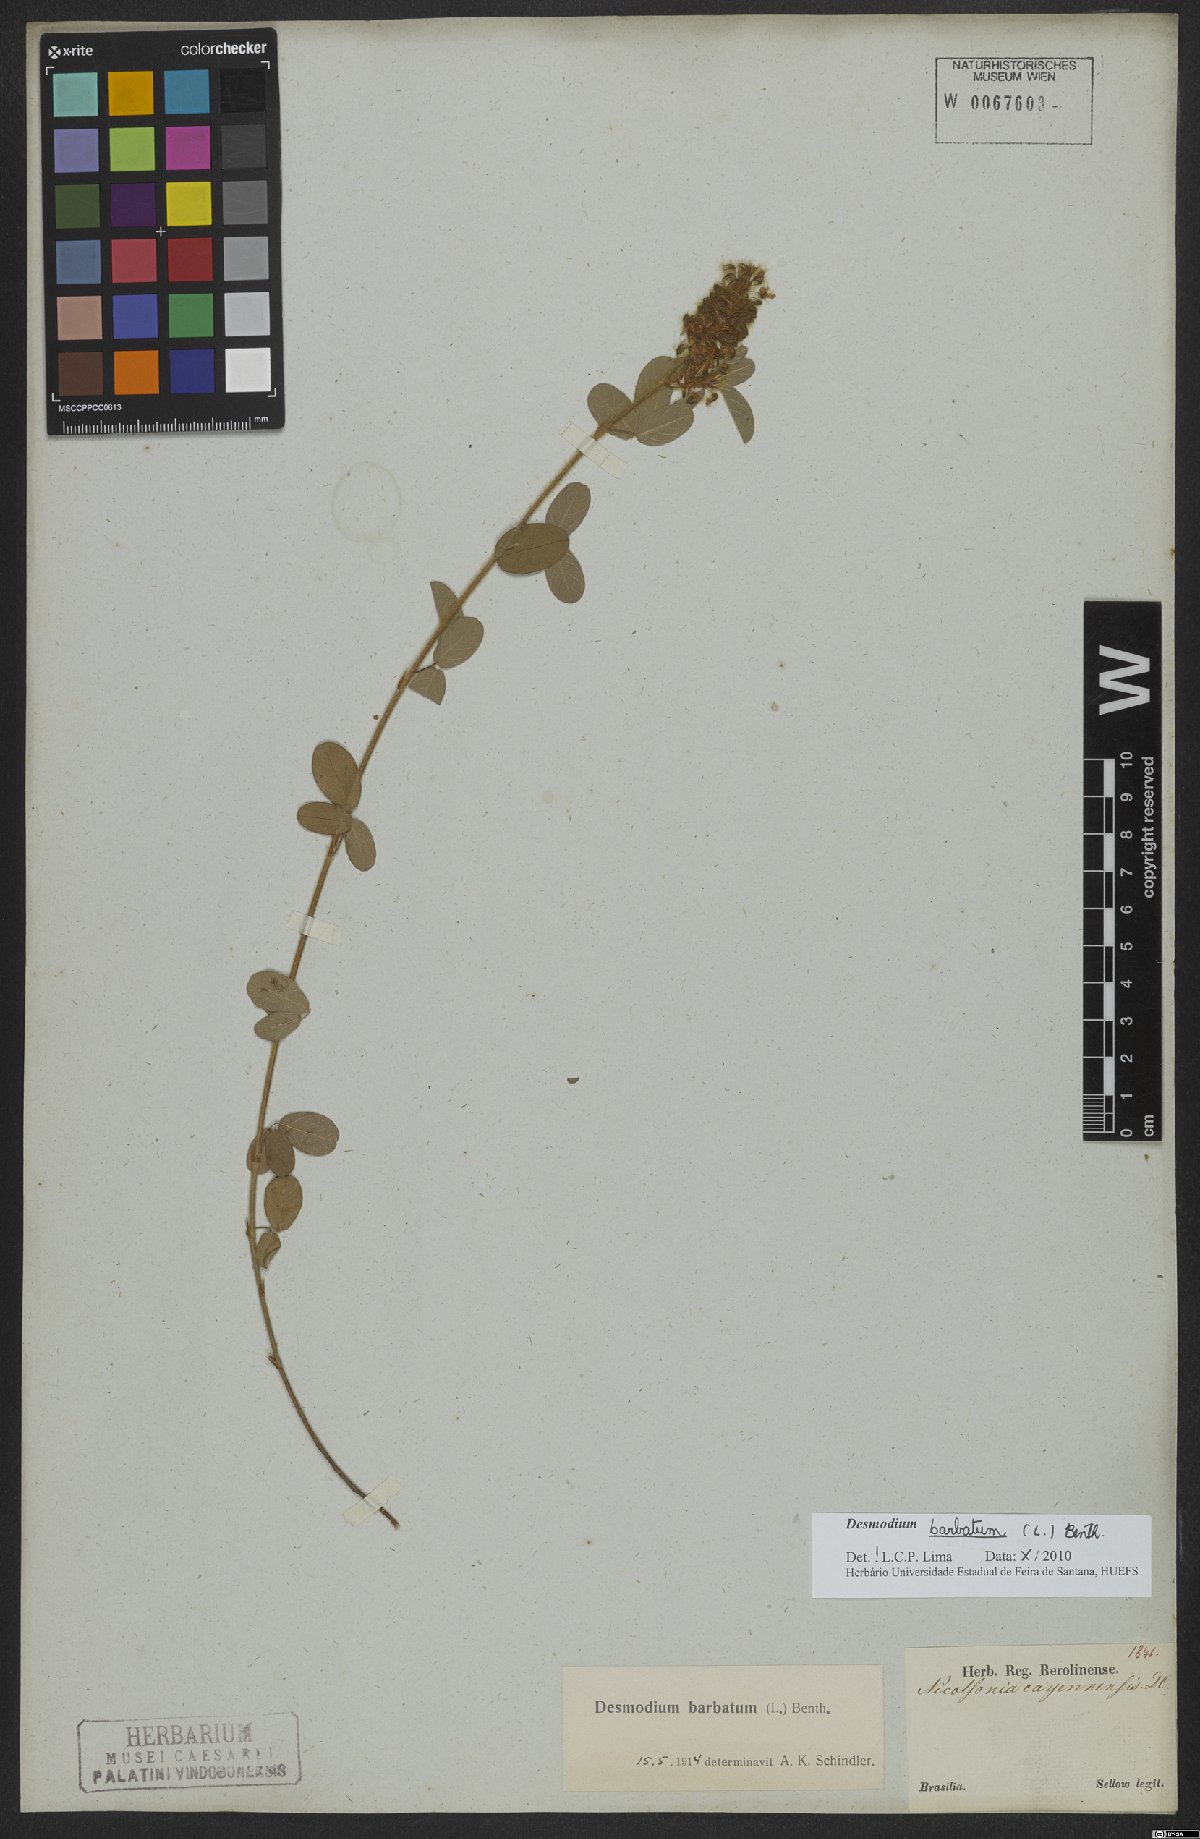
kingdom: Plantae
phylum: Tracheophyta
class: Magnoliopsida
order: Fabales
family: Fabaceae
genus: Grona
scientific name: Grona barbata
